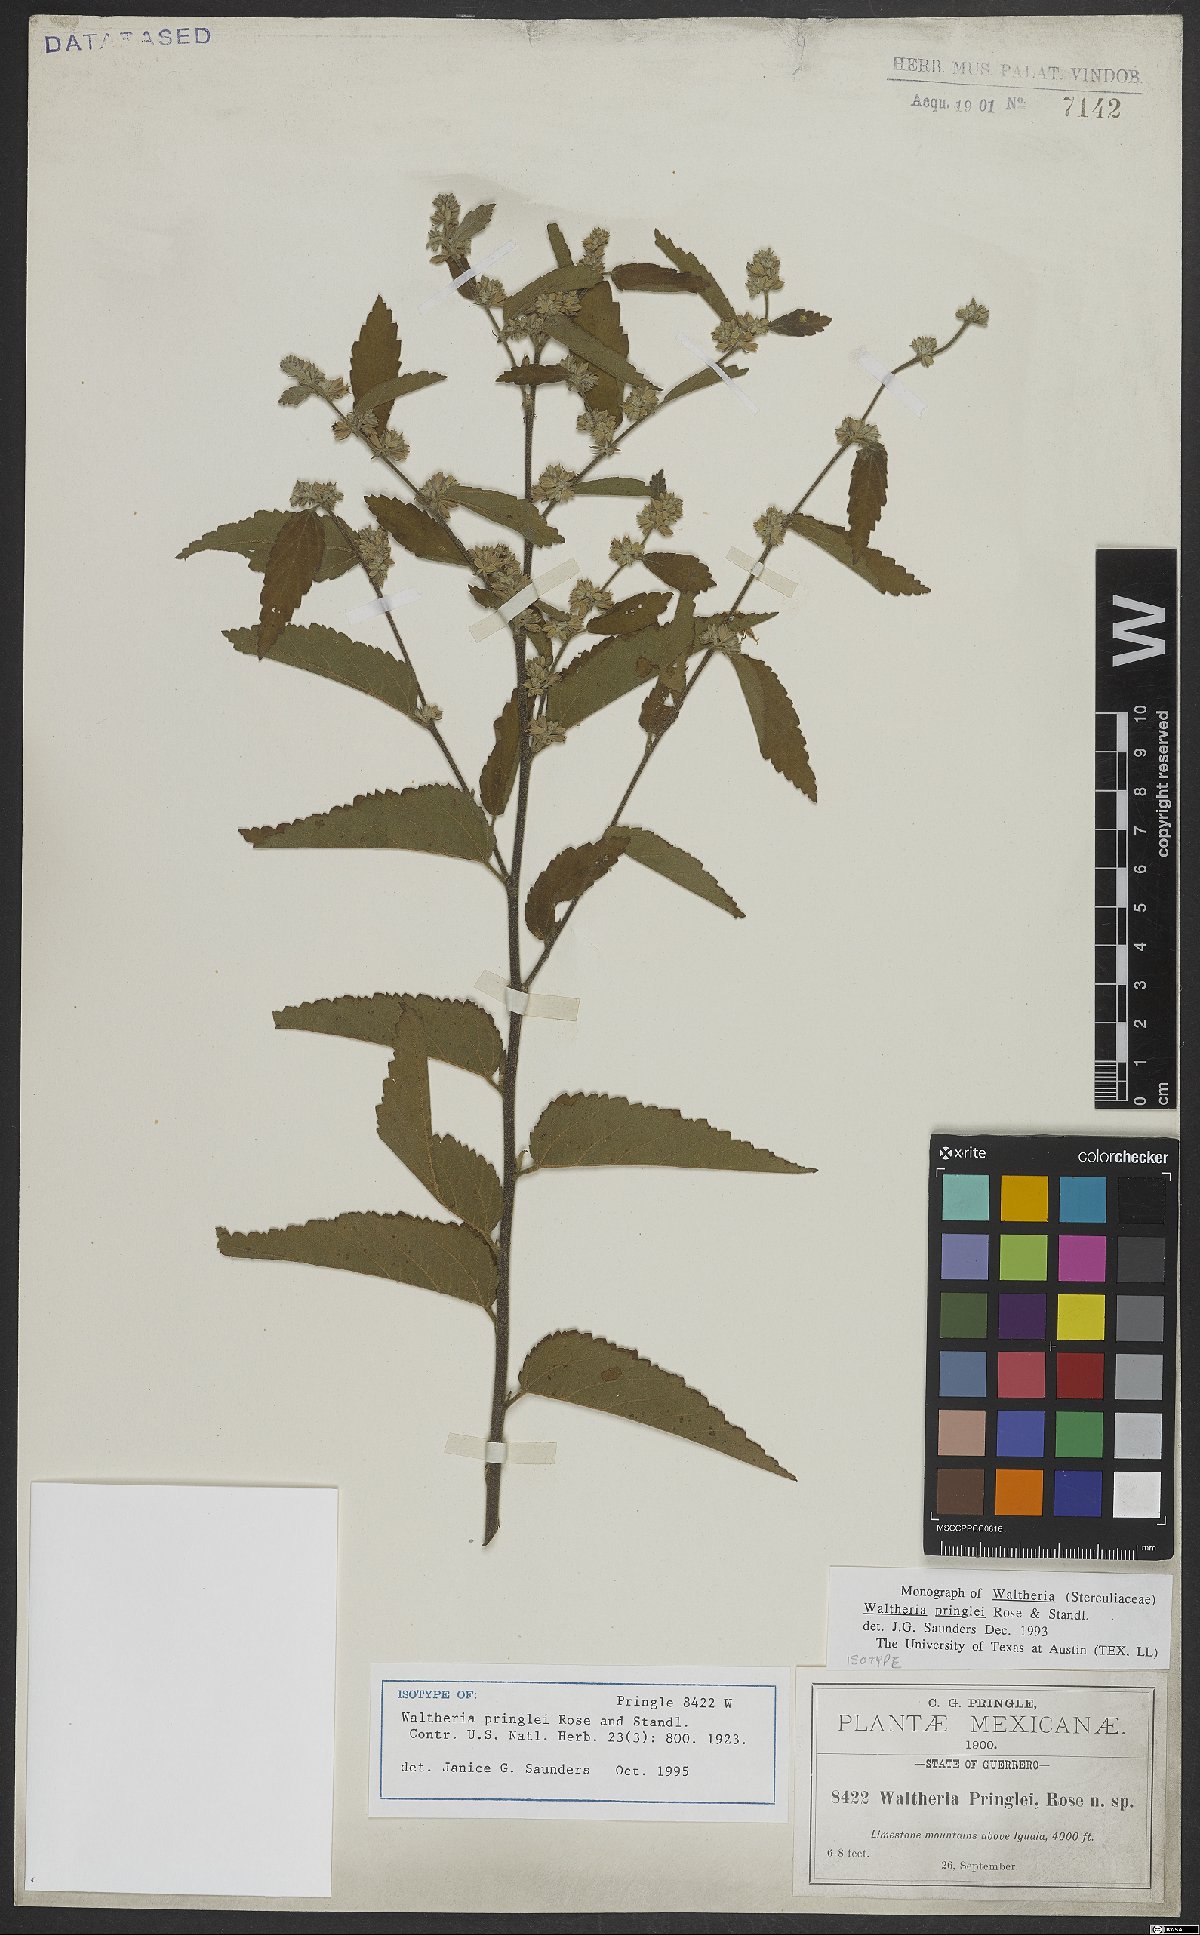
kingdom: Plantae
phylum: Tracheophyta
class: Magnoliopsida
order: Malvales
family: Malvaceae
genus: Waltheria
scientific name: Waltheria pringlei
